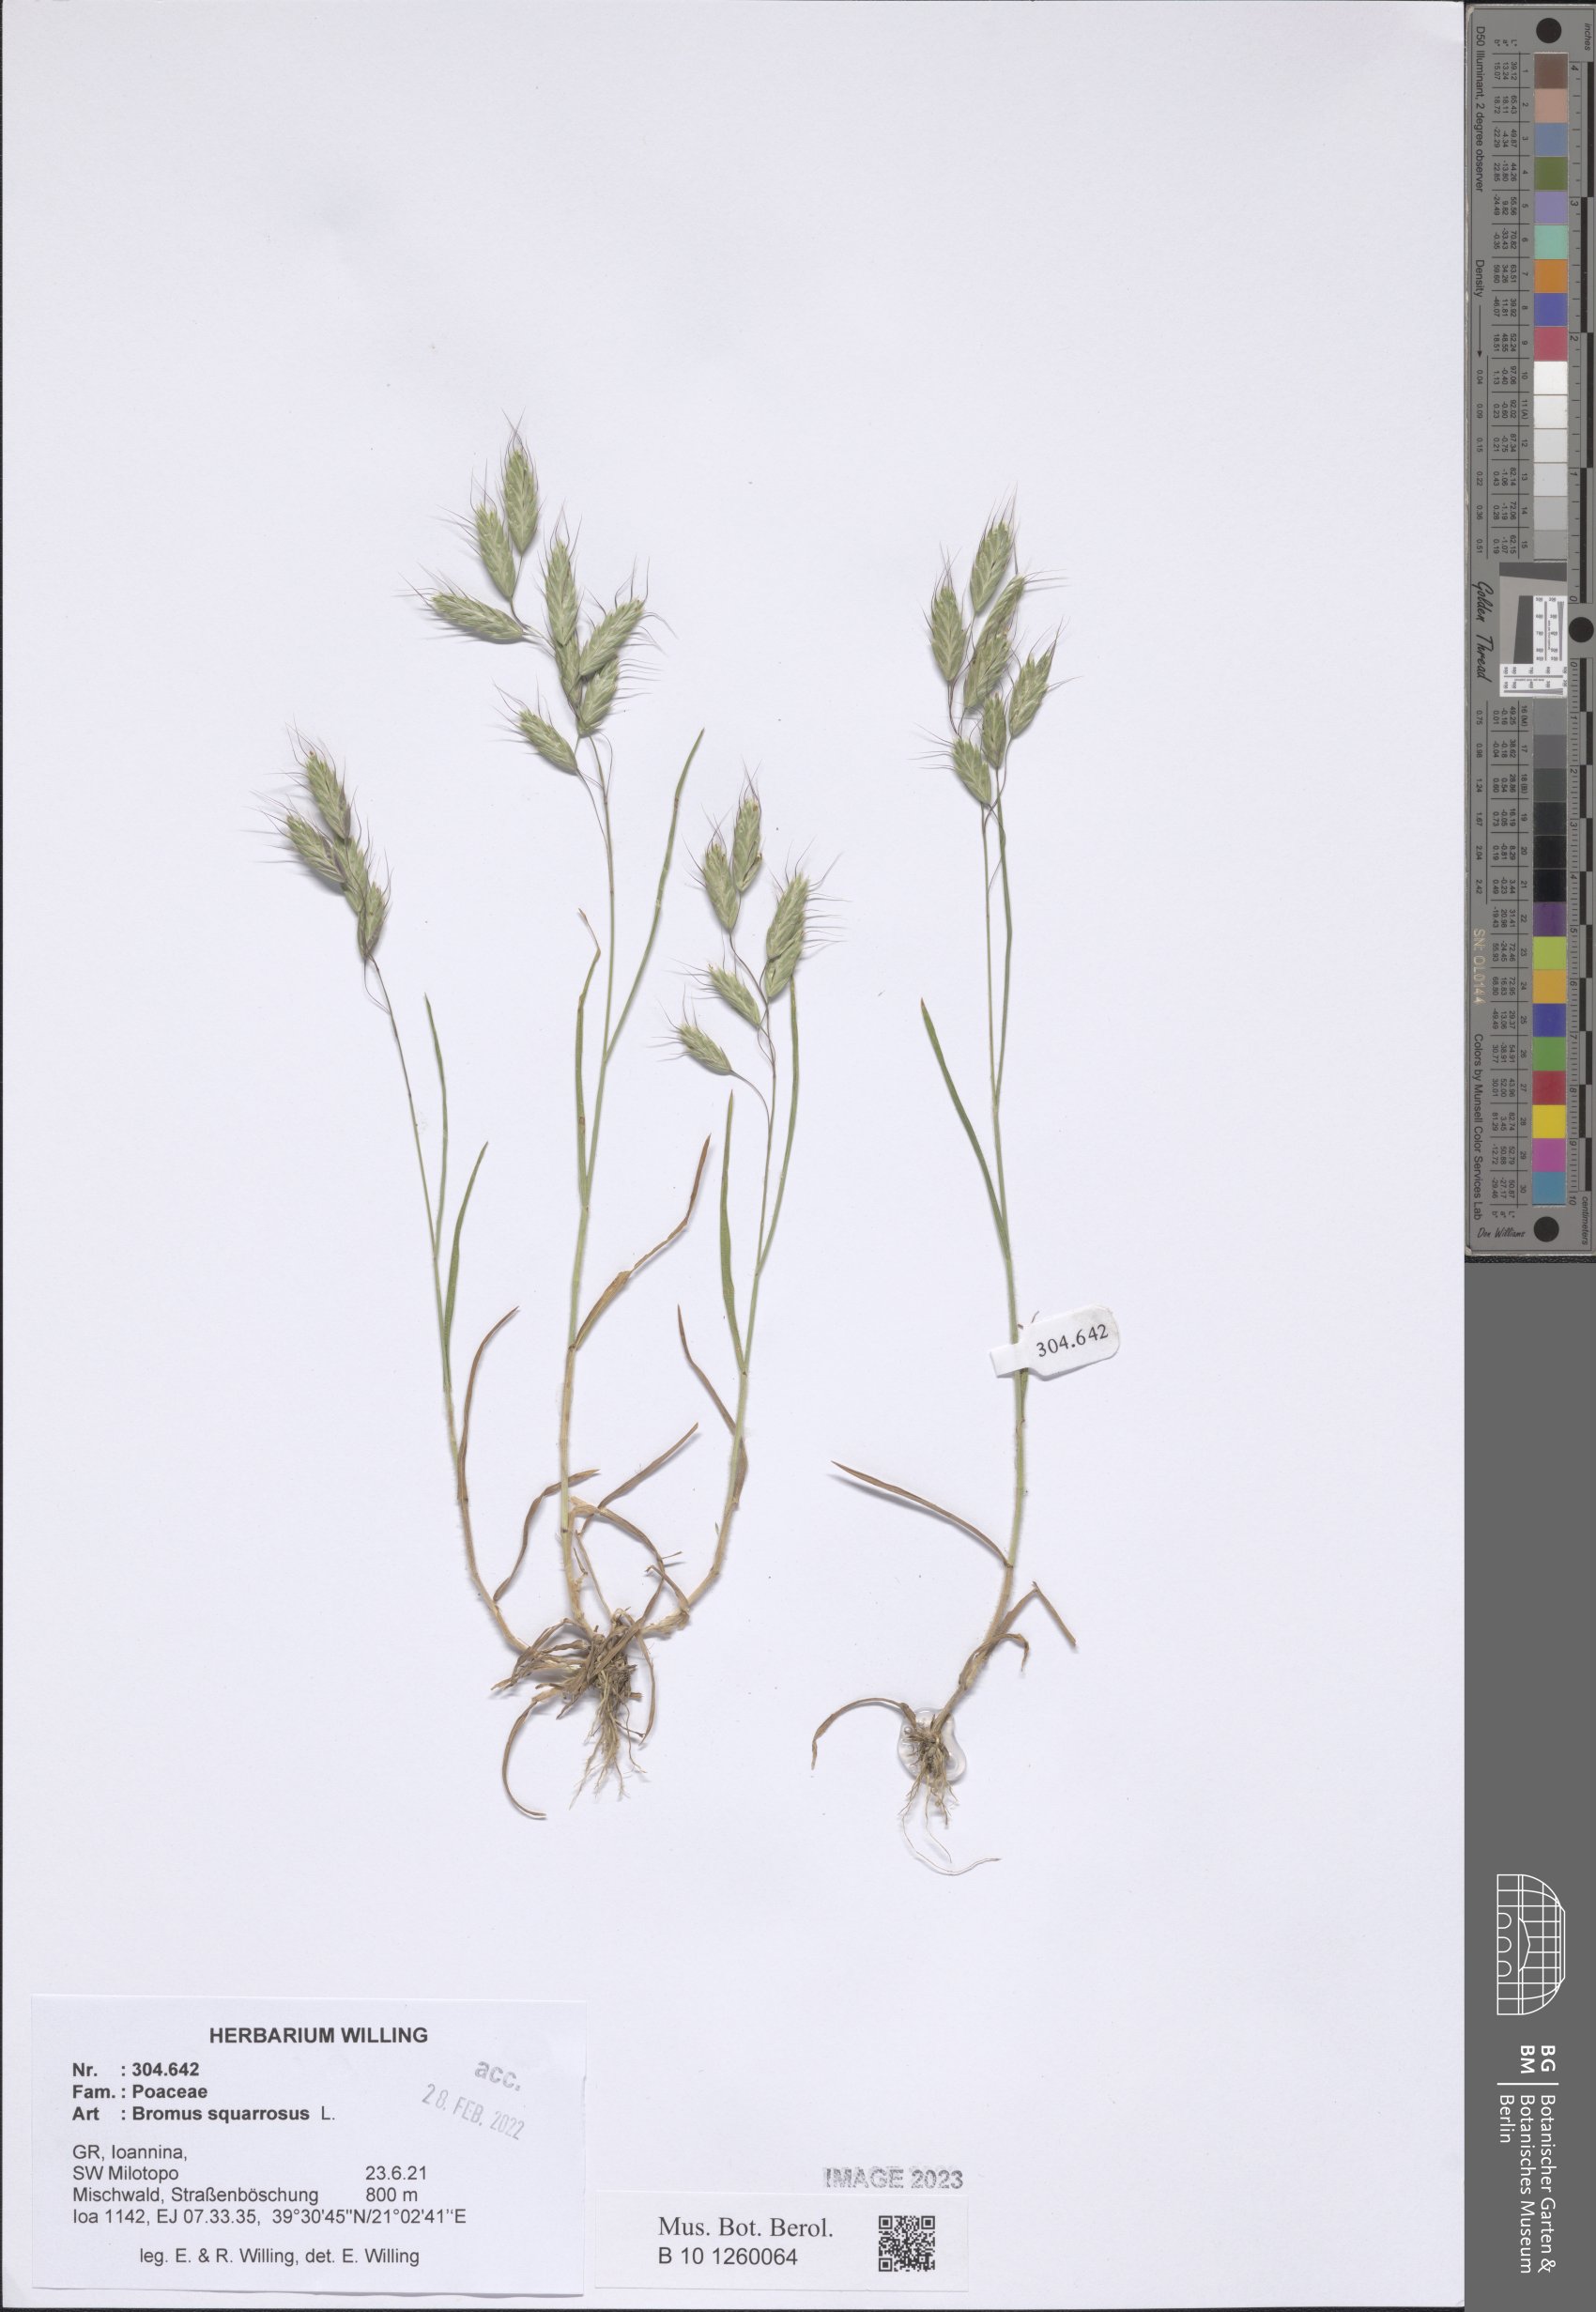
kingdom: Plantae
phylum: Tracheophyta
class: Liliopsida
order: Poales
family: Poaceae
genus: Bromus
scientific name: Bromus squarrosus
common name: Corn brome
